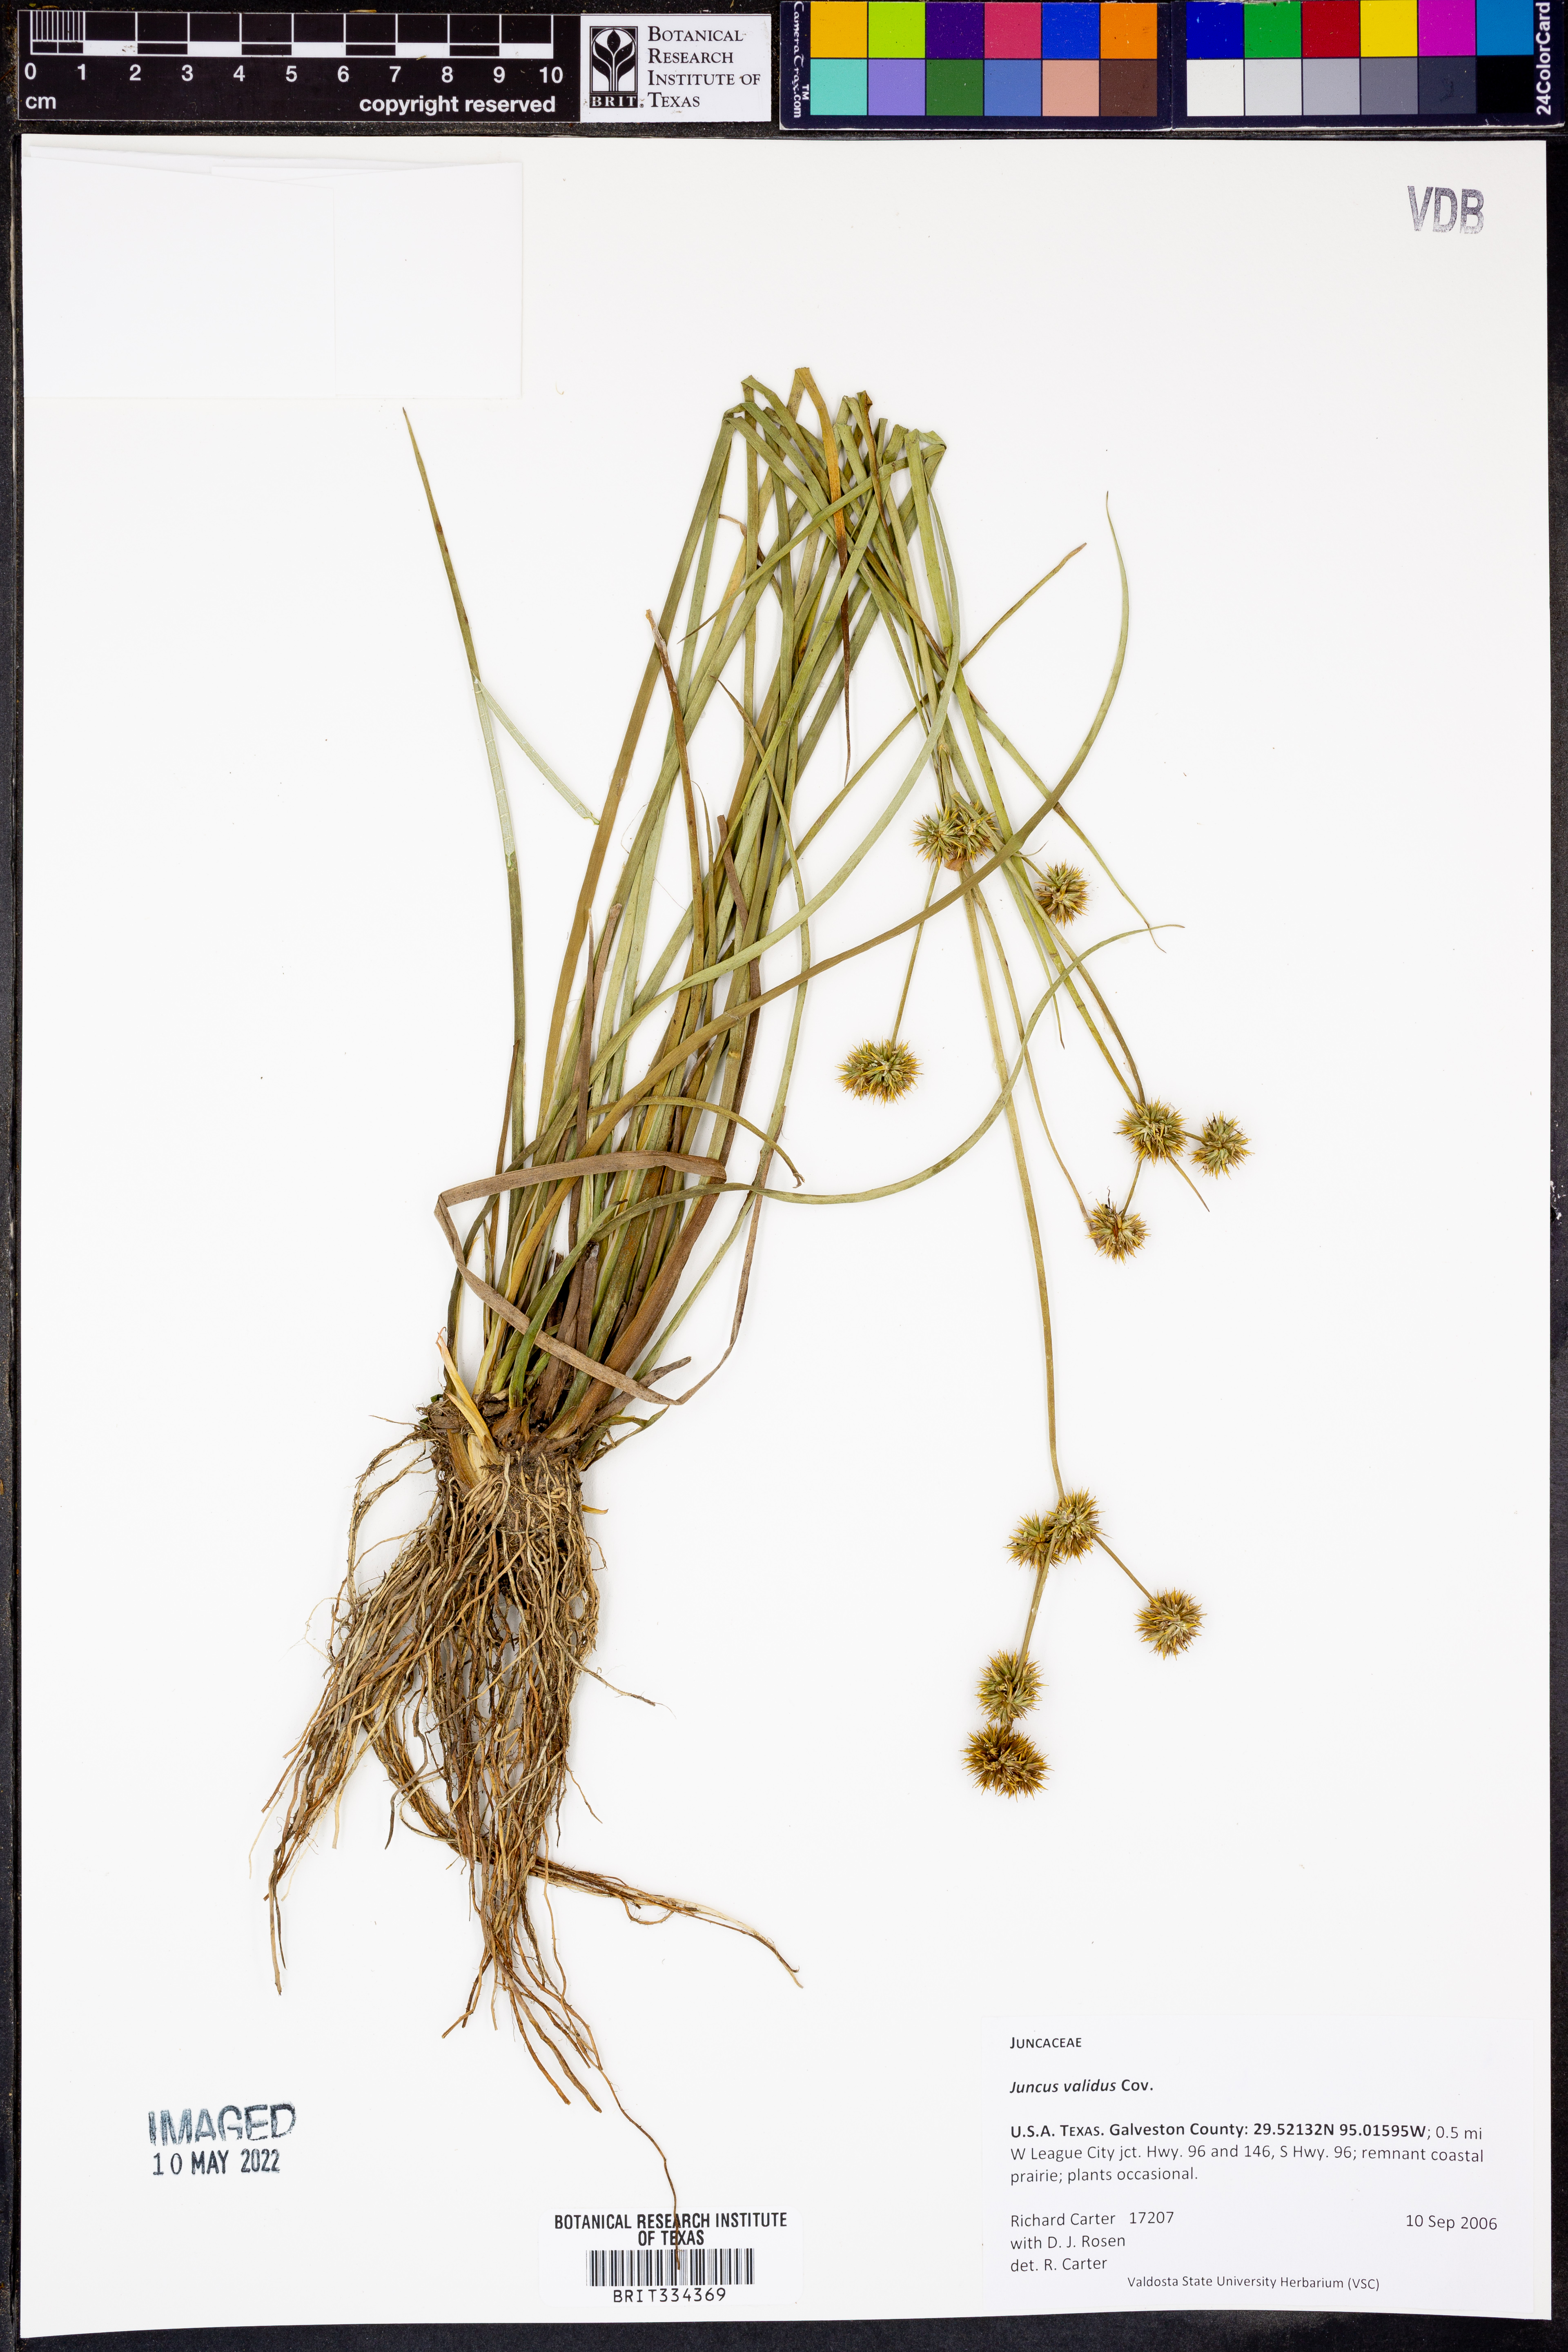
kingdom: Plantae
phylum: Tracheophyta
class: Liliopsida
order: Poales
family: Juncaceae
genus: Juncus
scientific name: Juncus validus
